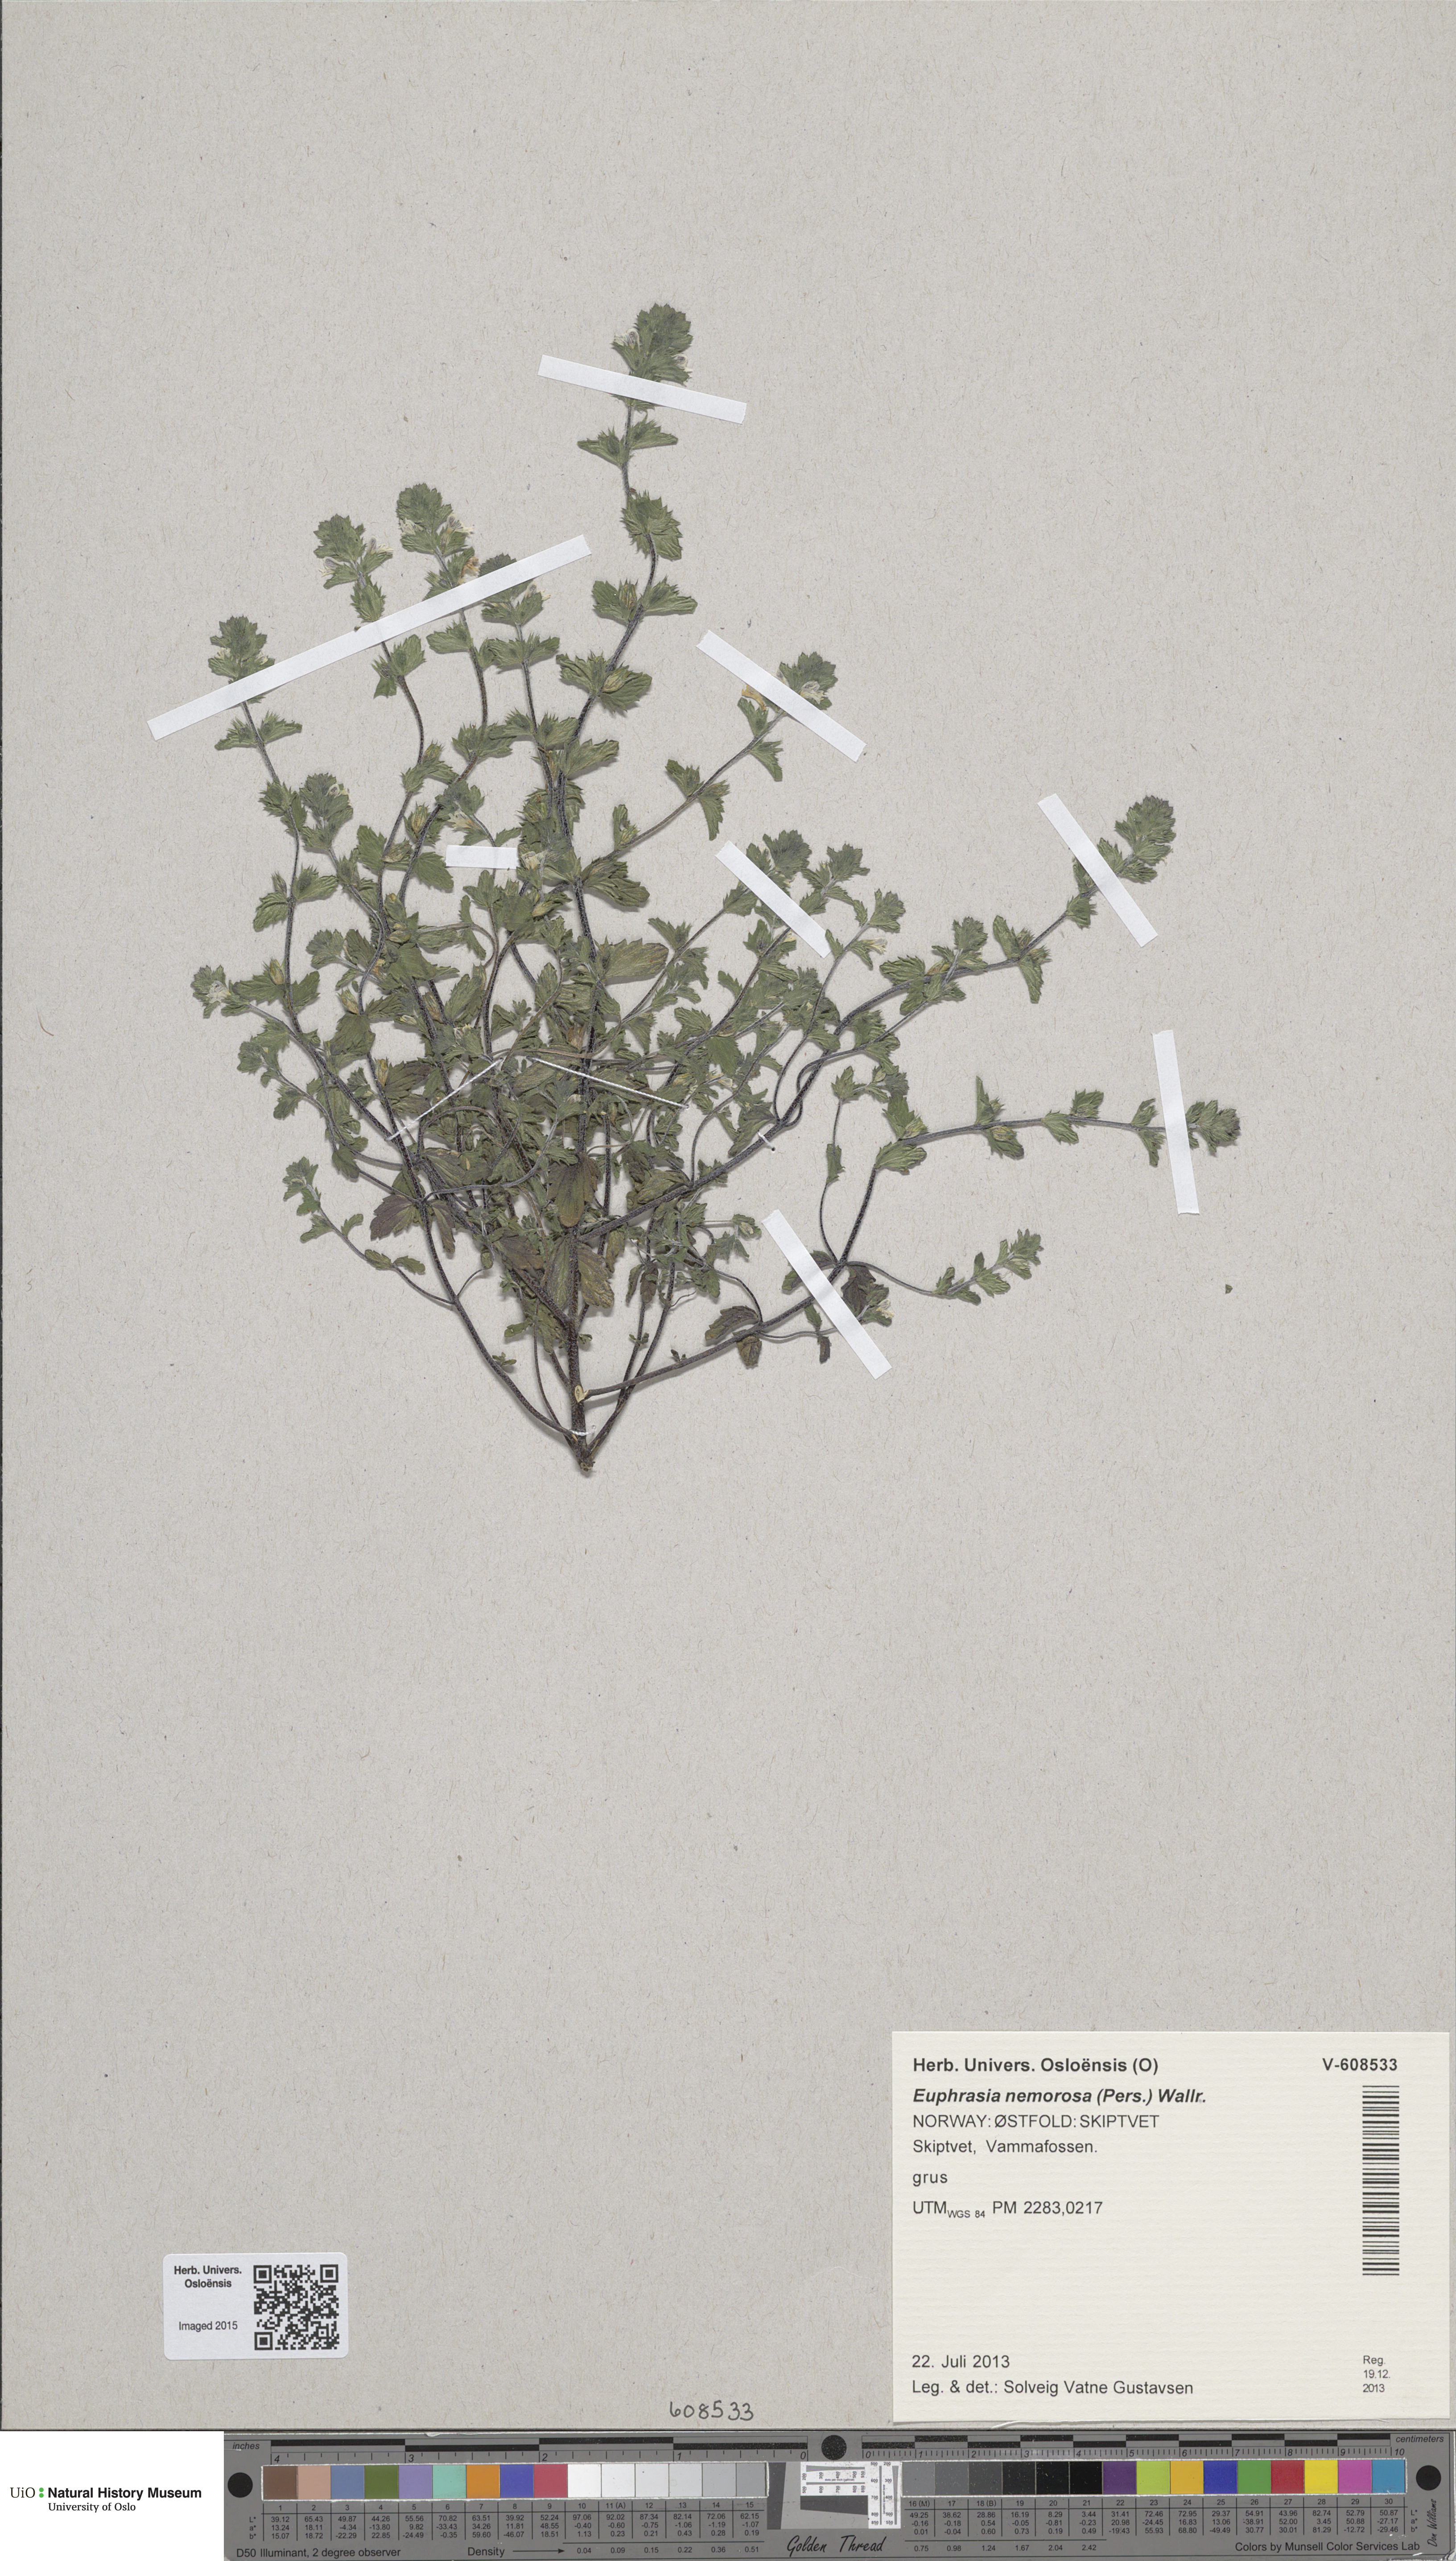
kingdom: Plantae
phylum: Tracheophyta
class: Magnoliopsida
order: Lamiales
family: Orobanchaceae
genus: Euphrasia
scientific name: Euphrasia nemorosa
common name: Common eyebright
